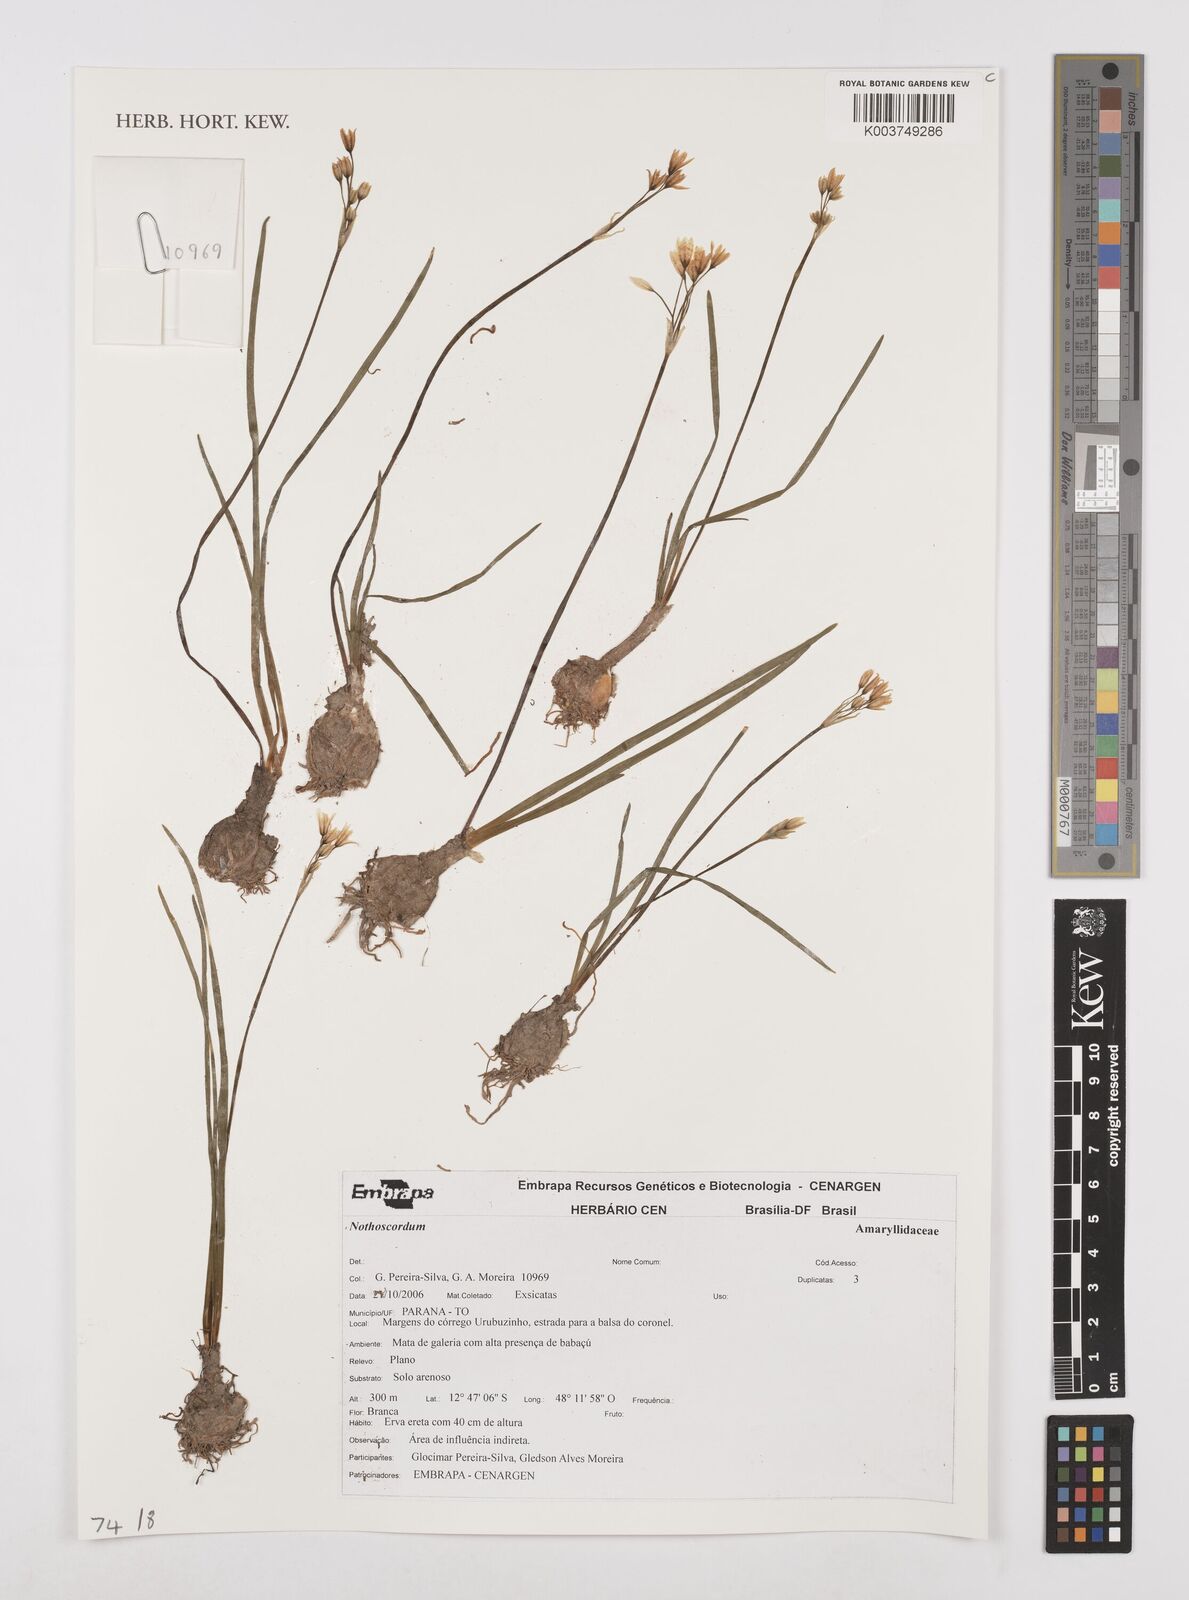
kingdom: Plantae
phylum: Tracheophyta
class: Liliopsida
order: Asparagales
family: Amaryllidaceae
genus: Nothoscordum
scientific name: Nothoscordum
